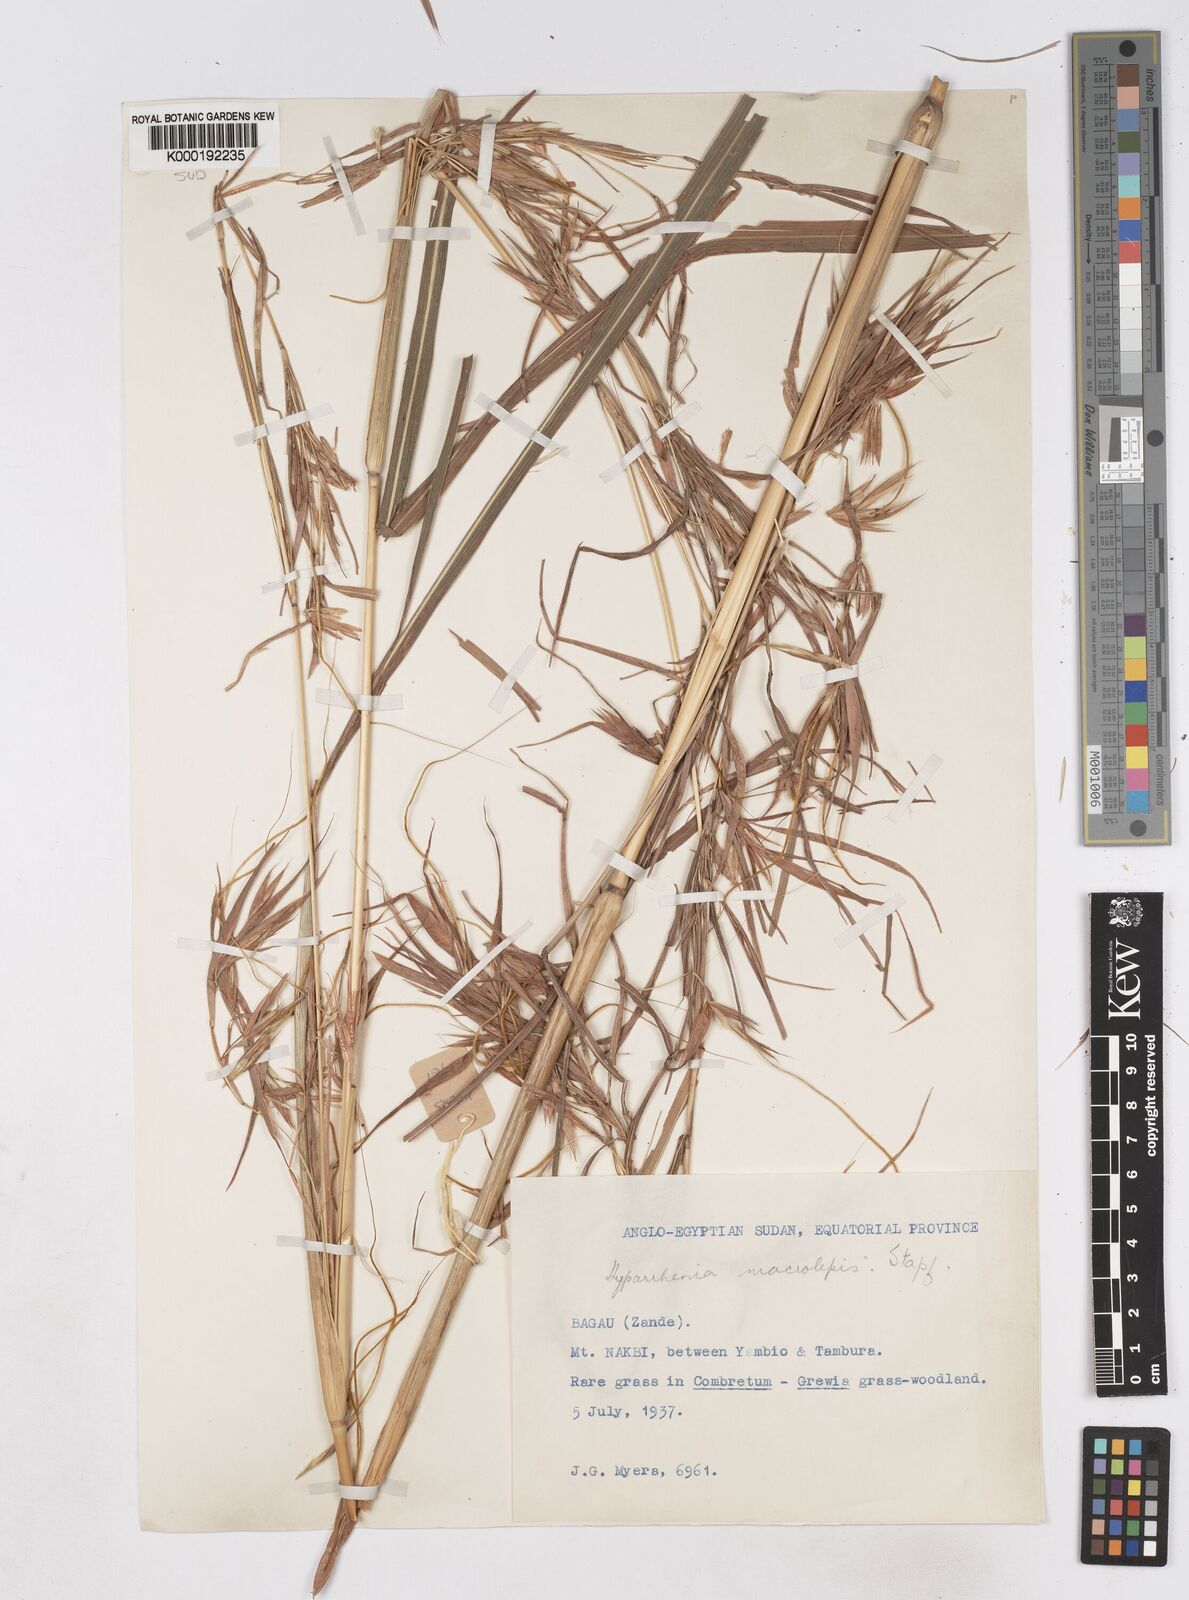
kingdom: Plantae
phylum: Tracheophyta
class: Liliopsida
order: Poales
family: Poaceae
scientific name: Poaceae
